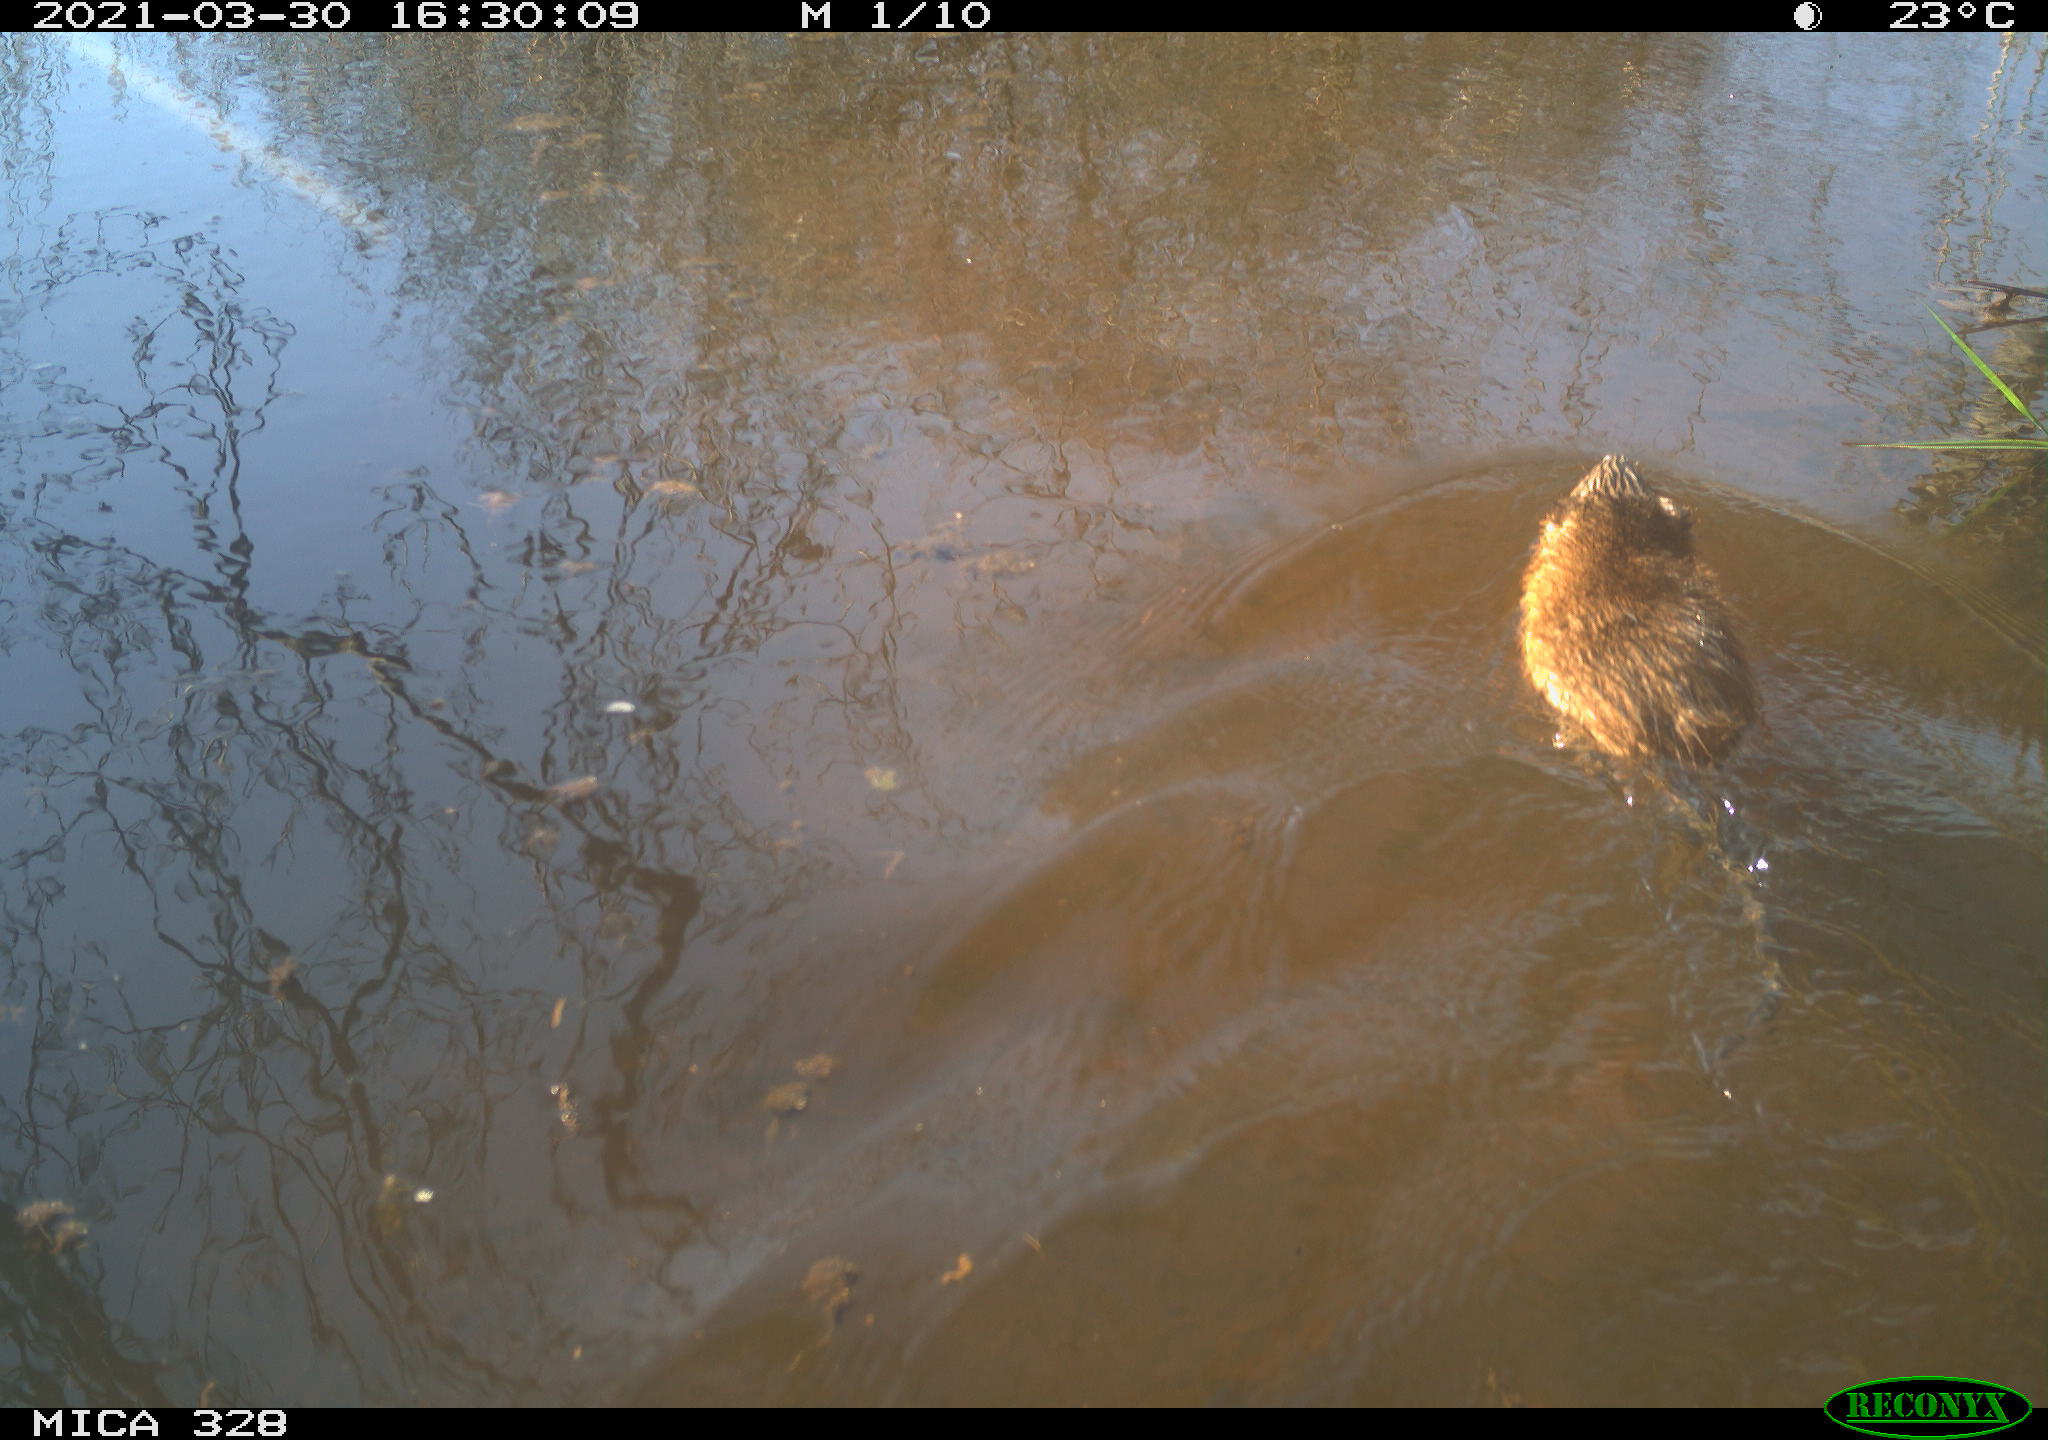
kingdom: Animalia
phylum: Chordata
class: Mammalia
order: Rodentia
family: Cricetidae
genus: Ondatra
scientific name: Ondatra zibethicus
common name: Muskrat
